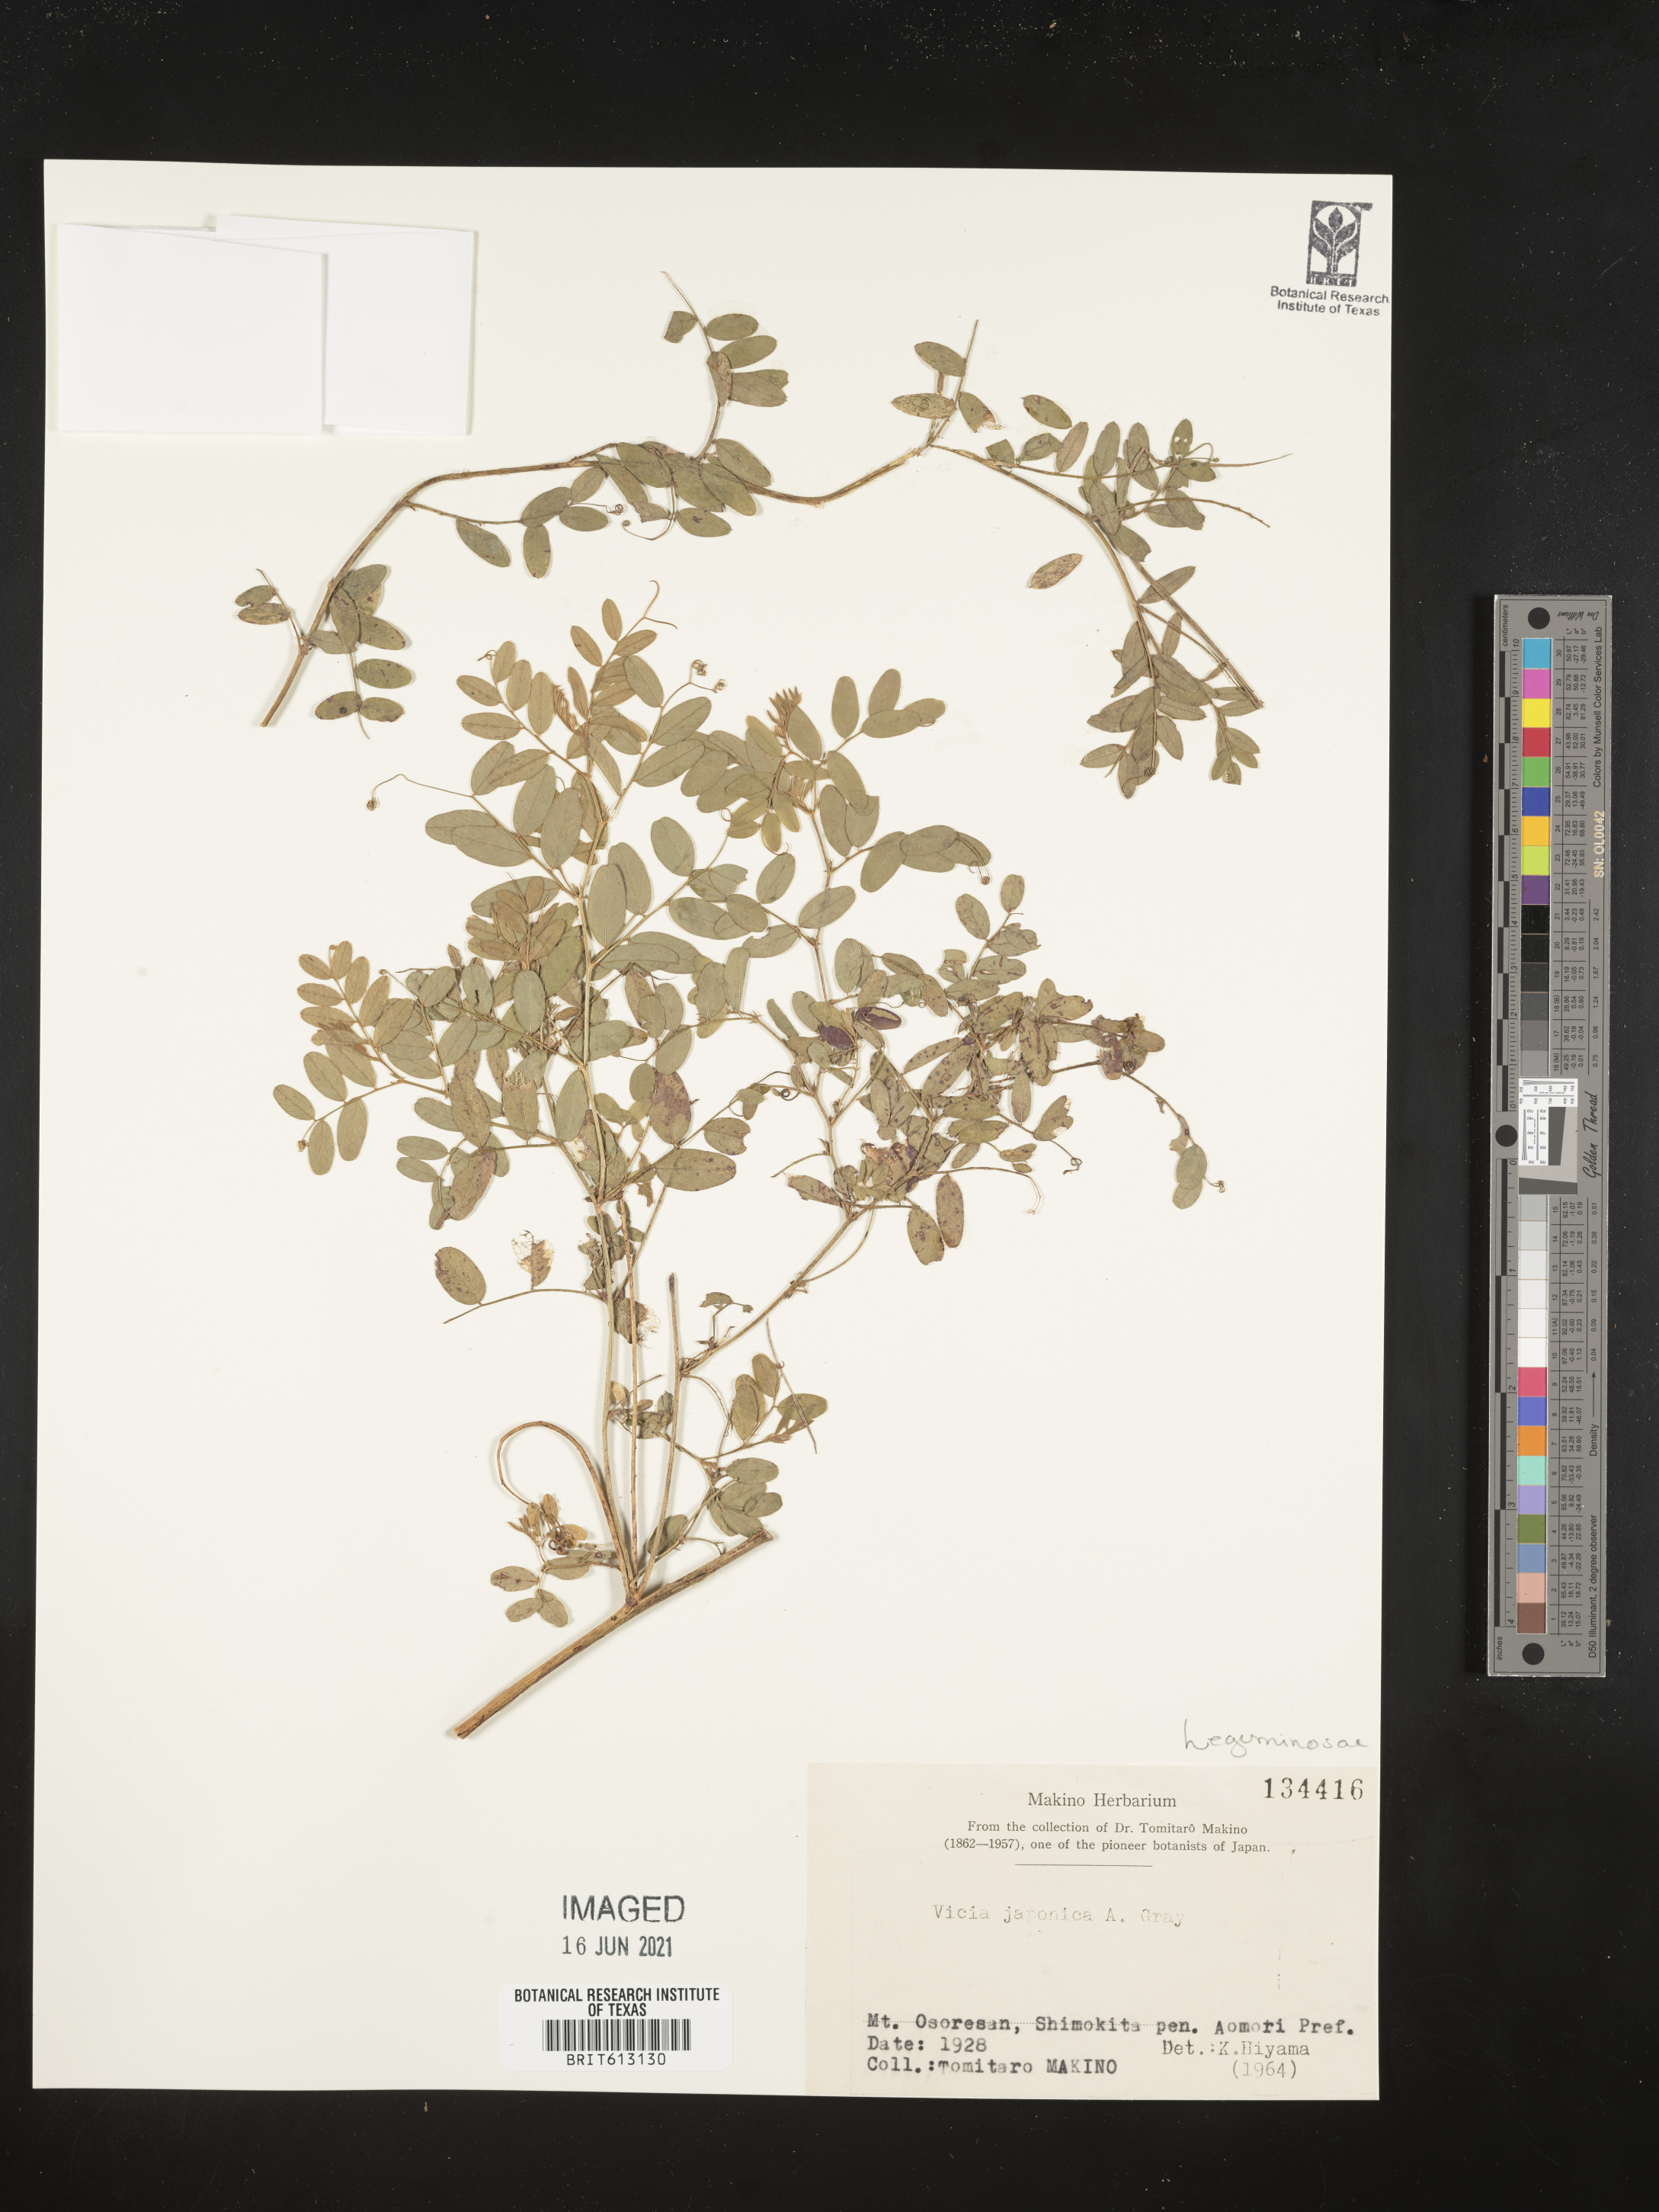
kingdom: Plantae
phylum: Tracheophyta
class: Magnoliopsida
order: Fabales
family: Fabaceae
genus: Vicia
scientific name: Vicia japonica
